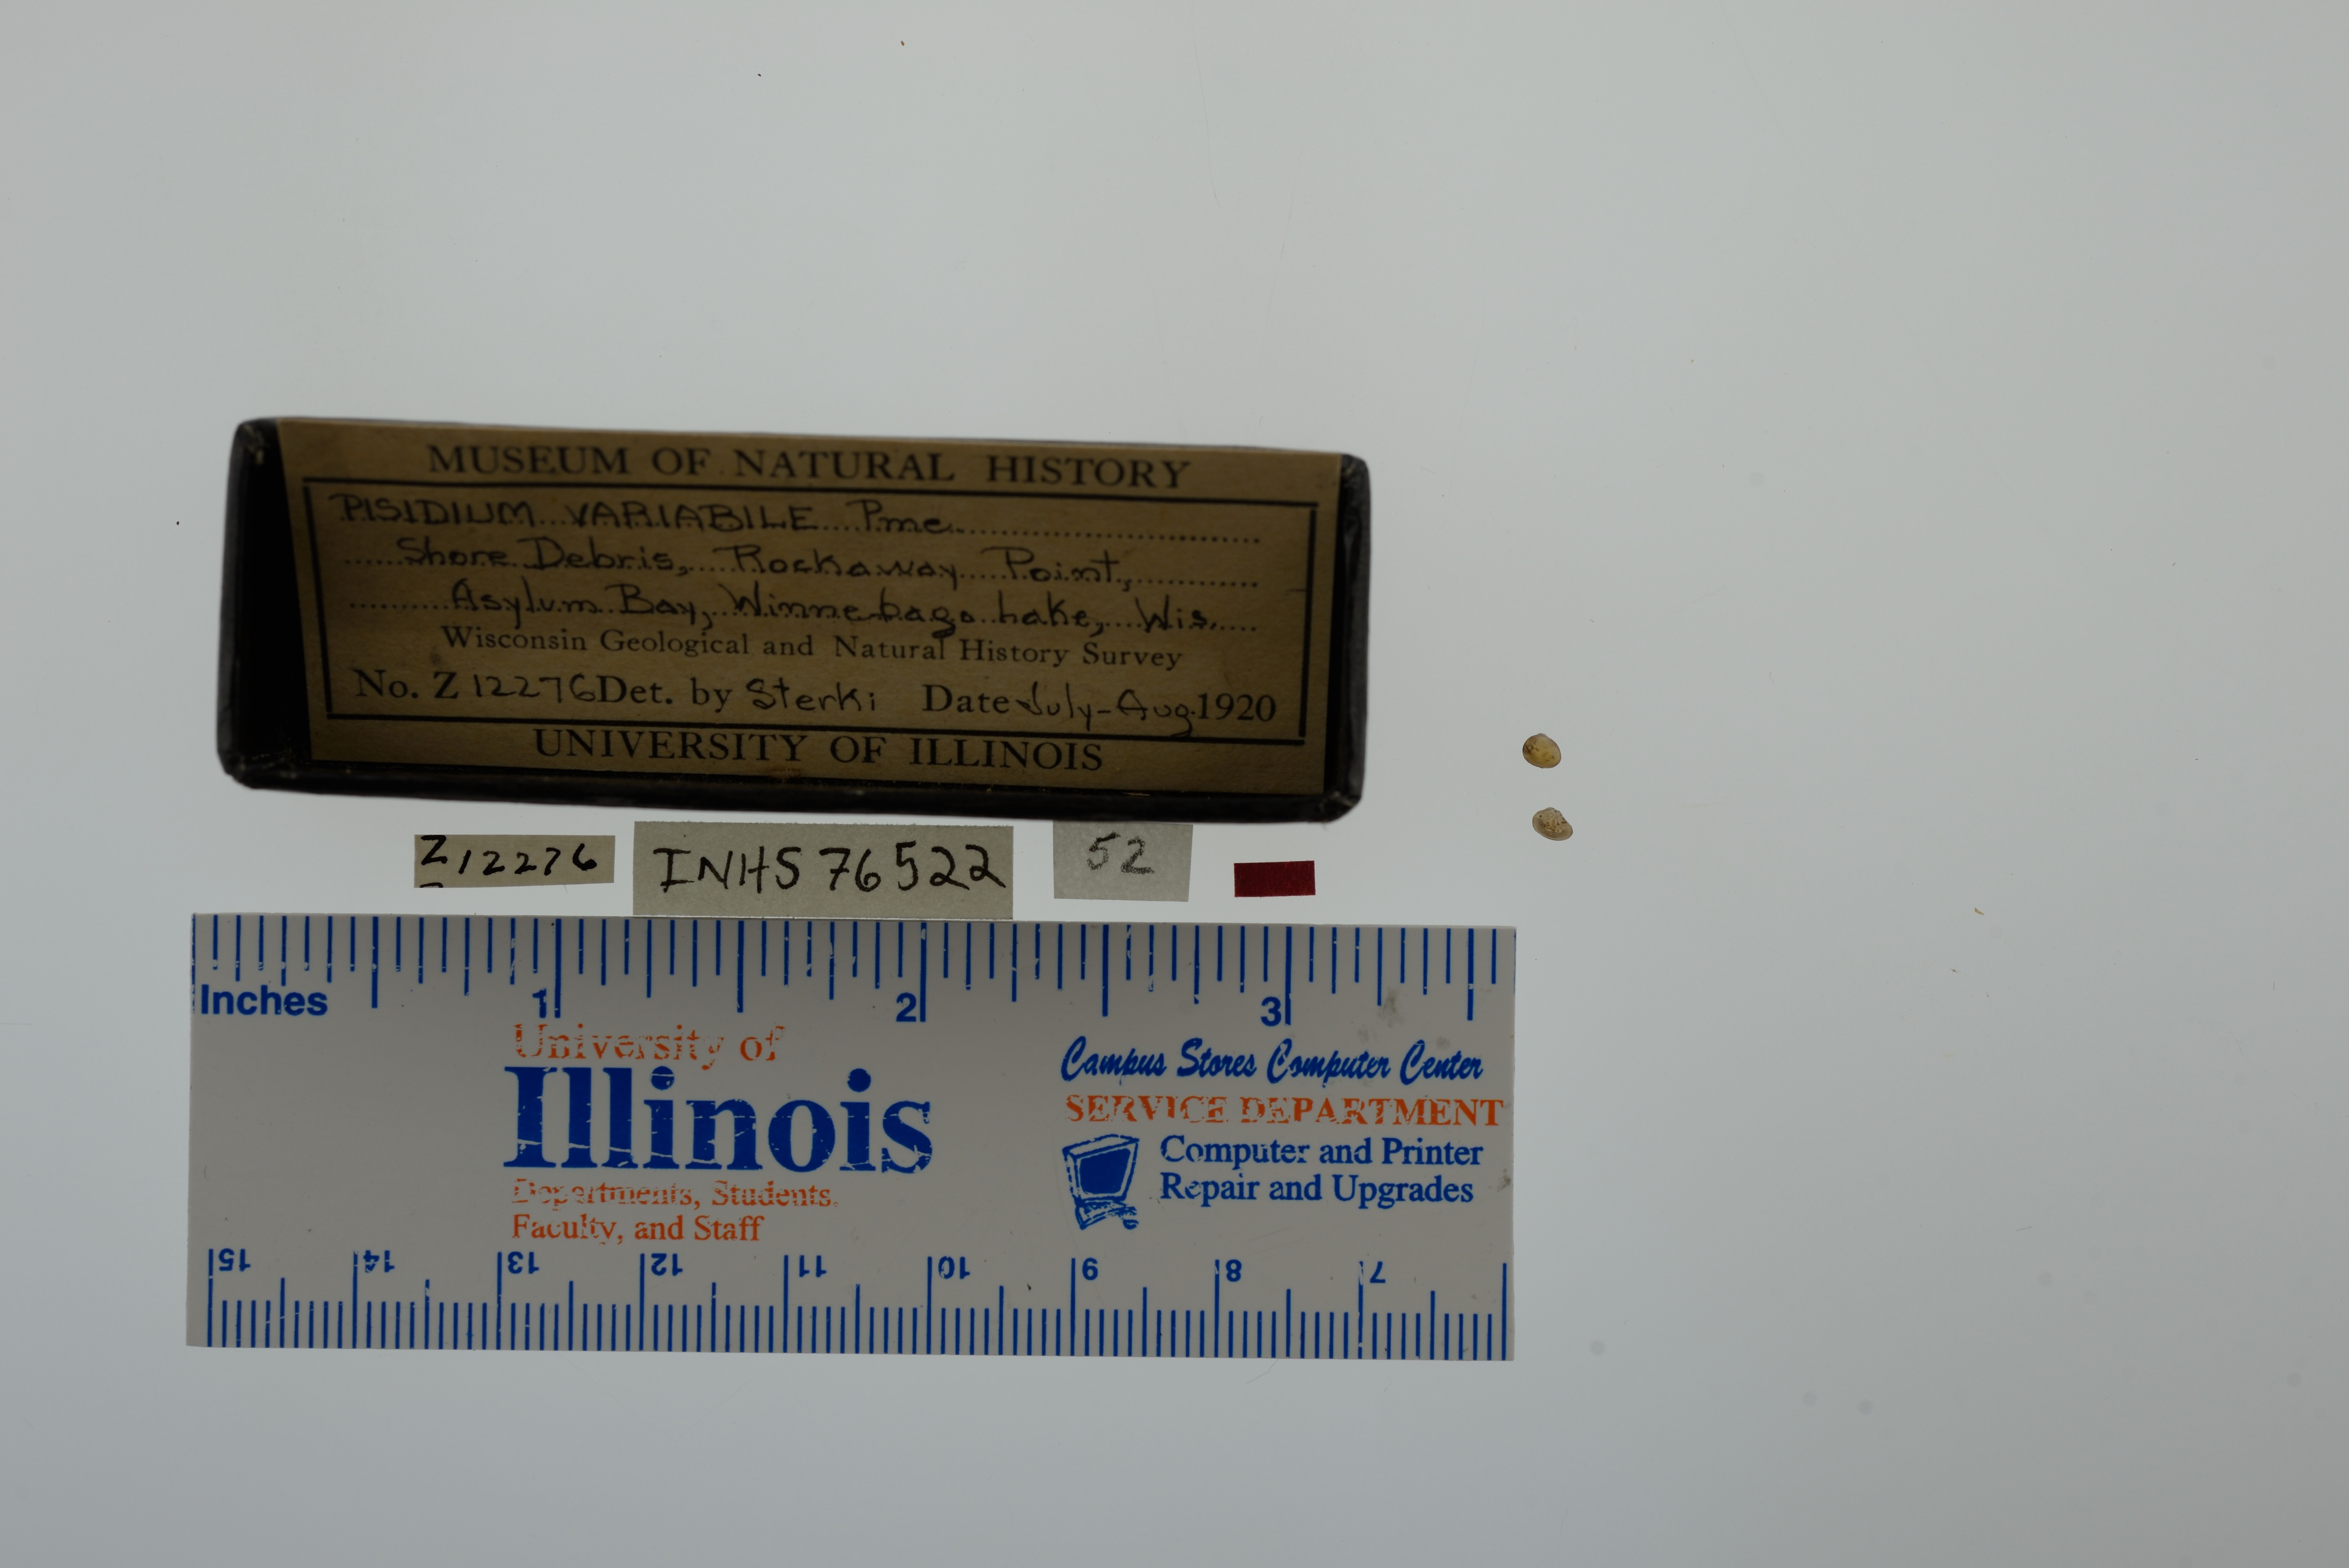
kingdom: Animalia
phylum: Mollusca
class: Bivalvia
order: Sphaeriida
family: Sphaeriidae
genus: Euglesa
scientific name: Euglesa variabilis
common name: Triangular peaclam
